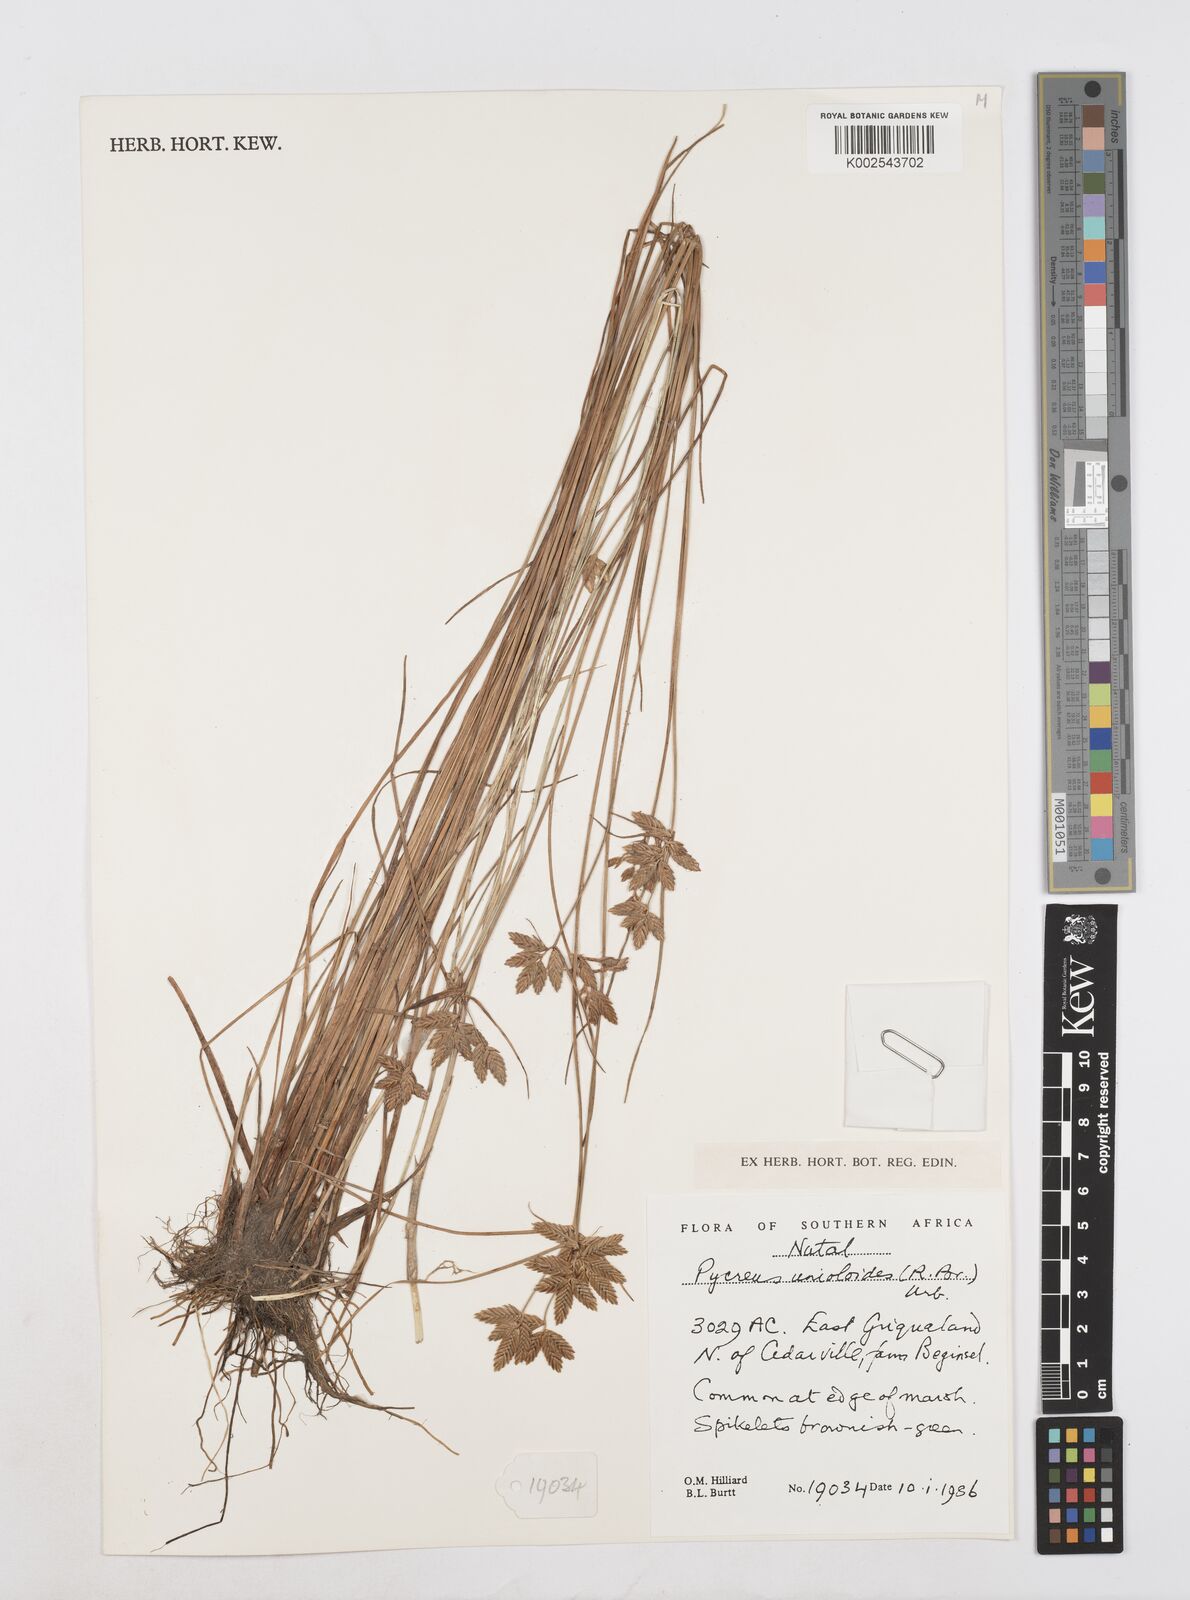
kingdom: Plantae
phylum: Tracheophyta
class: Liliopsida
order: Poales
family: Cyperaceae
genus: Cyperus
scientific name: Cyperus unioloides
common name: Uniola flatsedge
